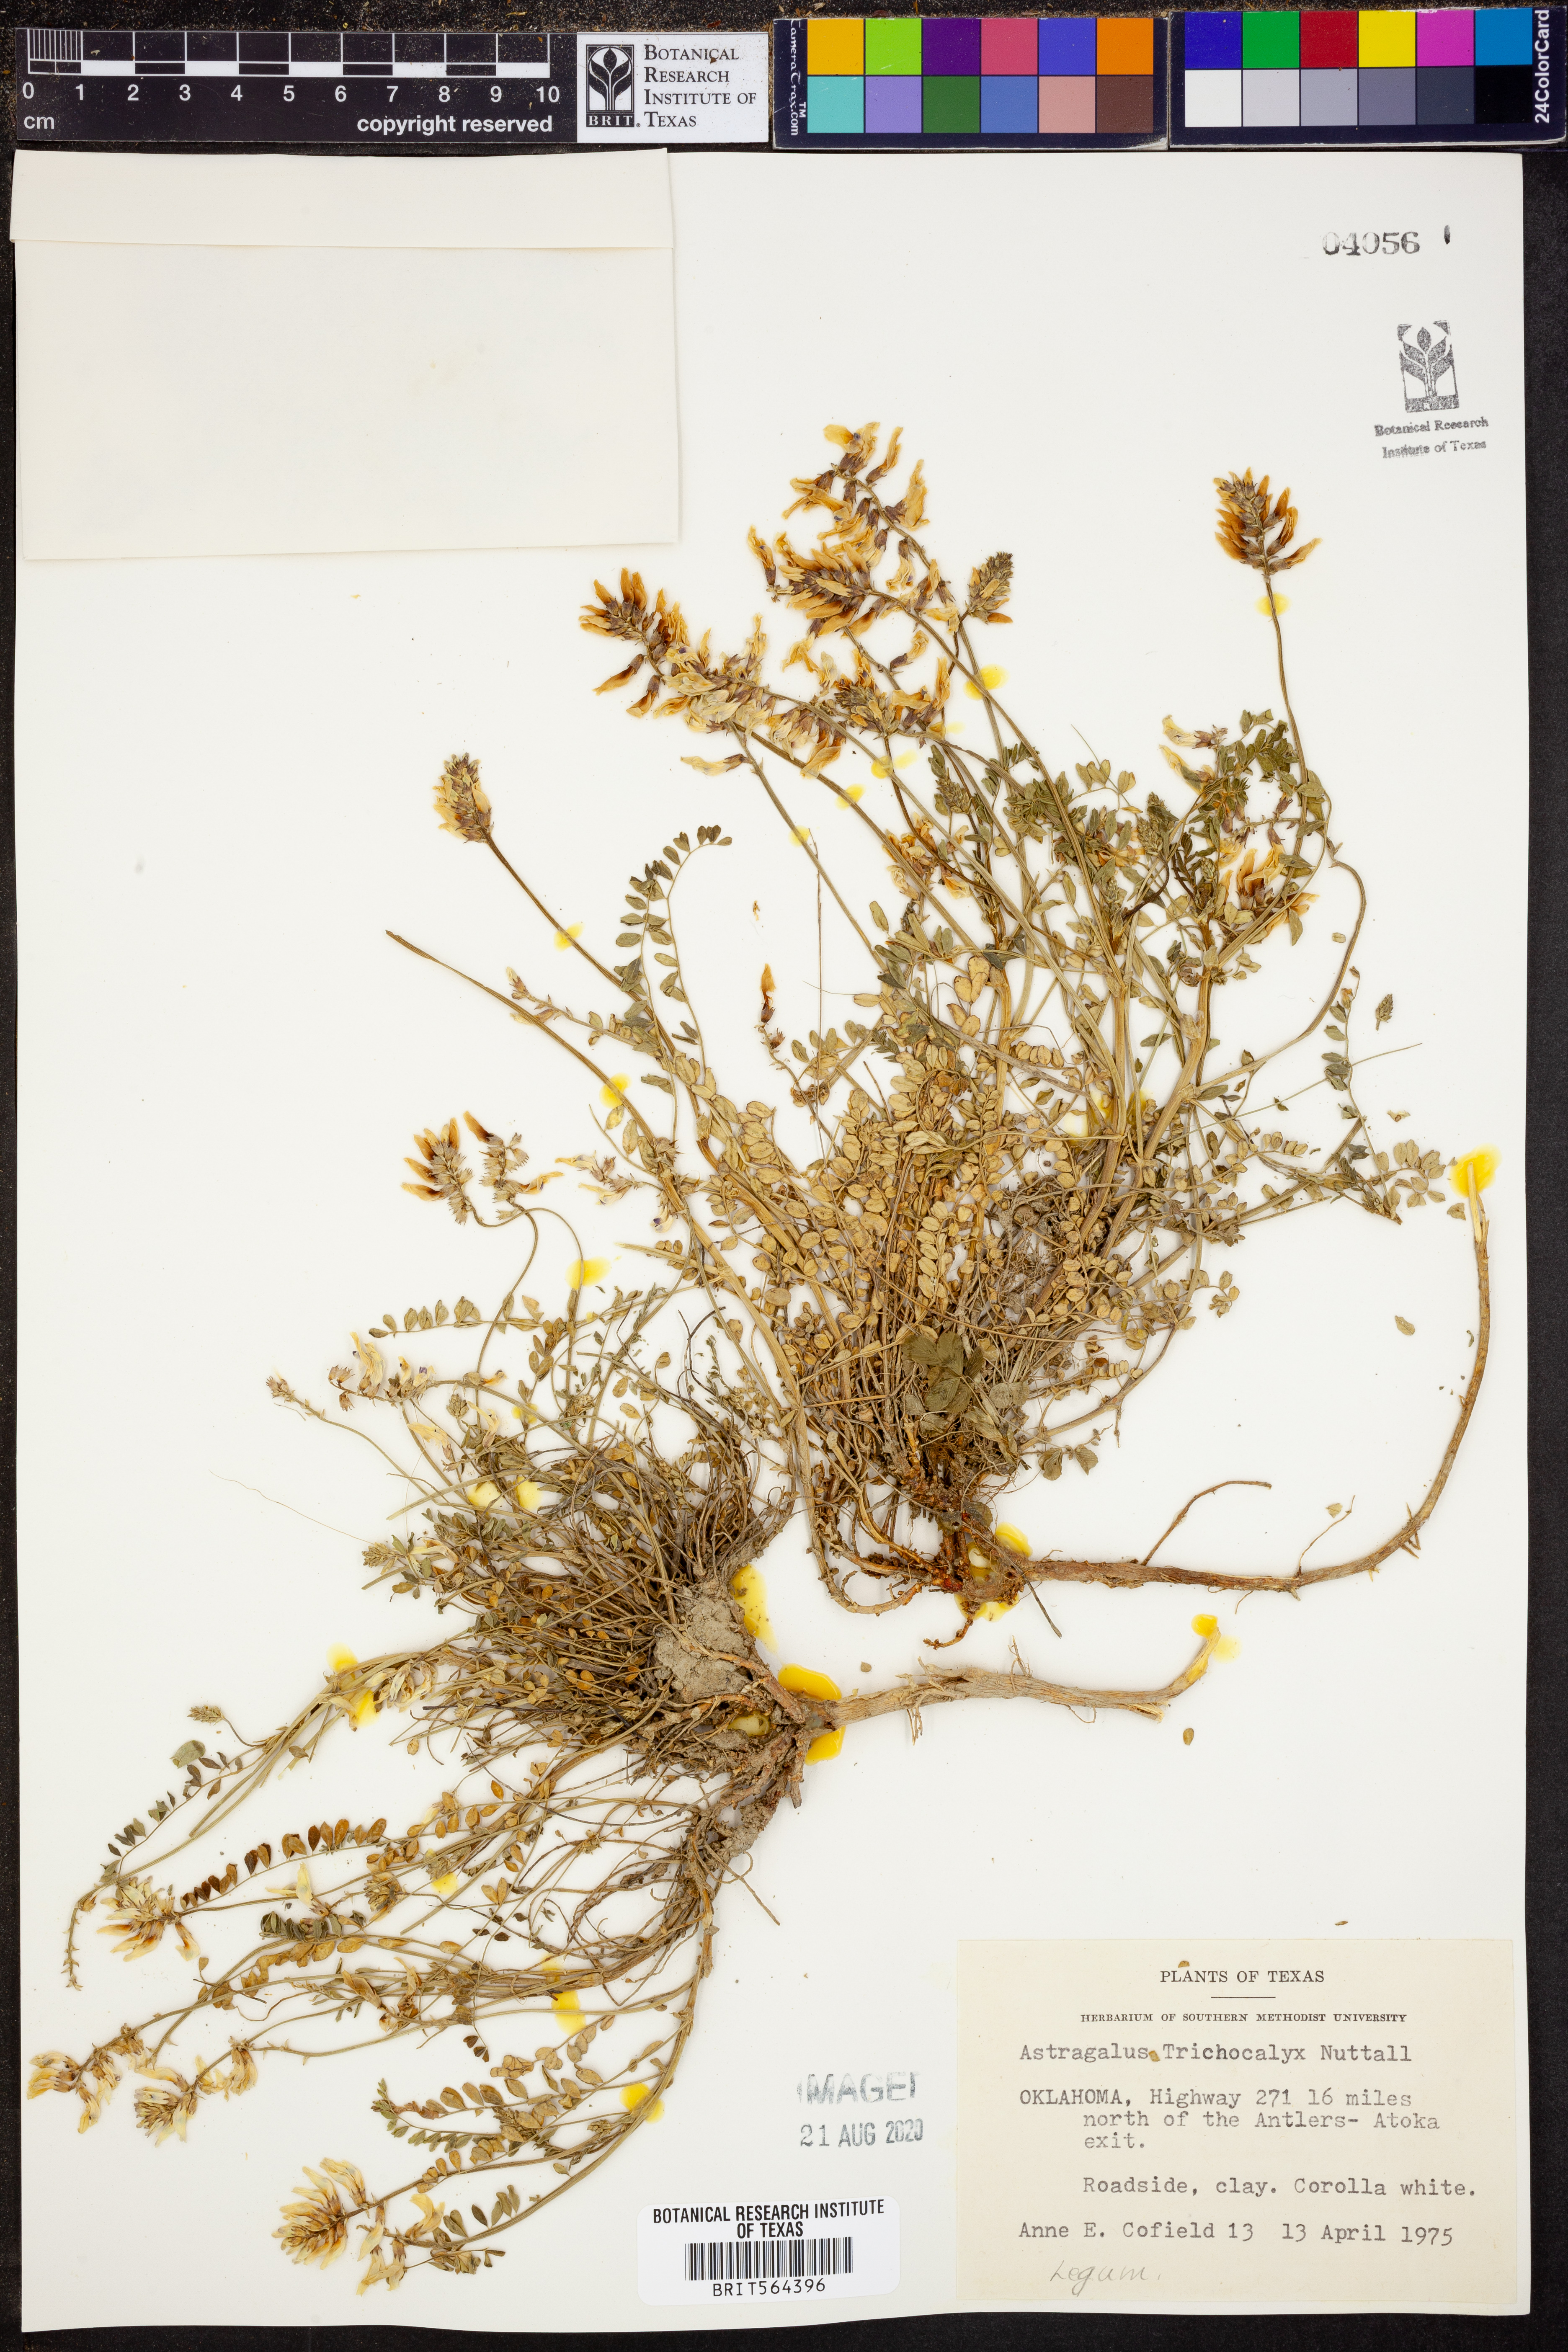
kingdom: Plantae
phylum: Tracheophyta
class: Magnoliopsida
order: Fabales
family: Fabaceae
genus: Astragalus
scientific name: Astragalus petropolitanus
